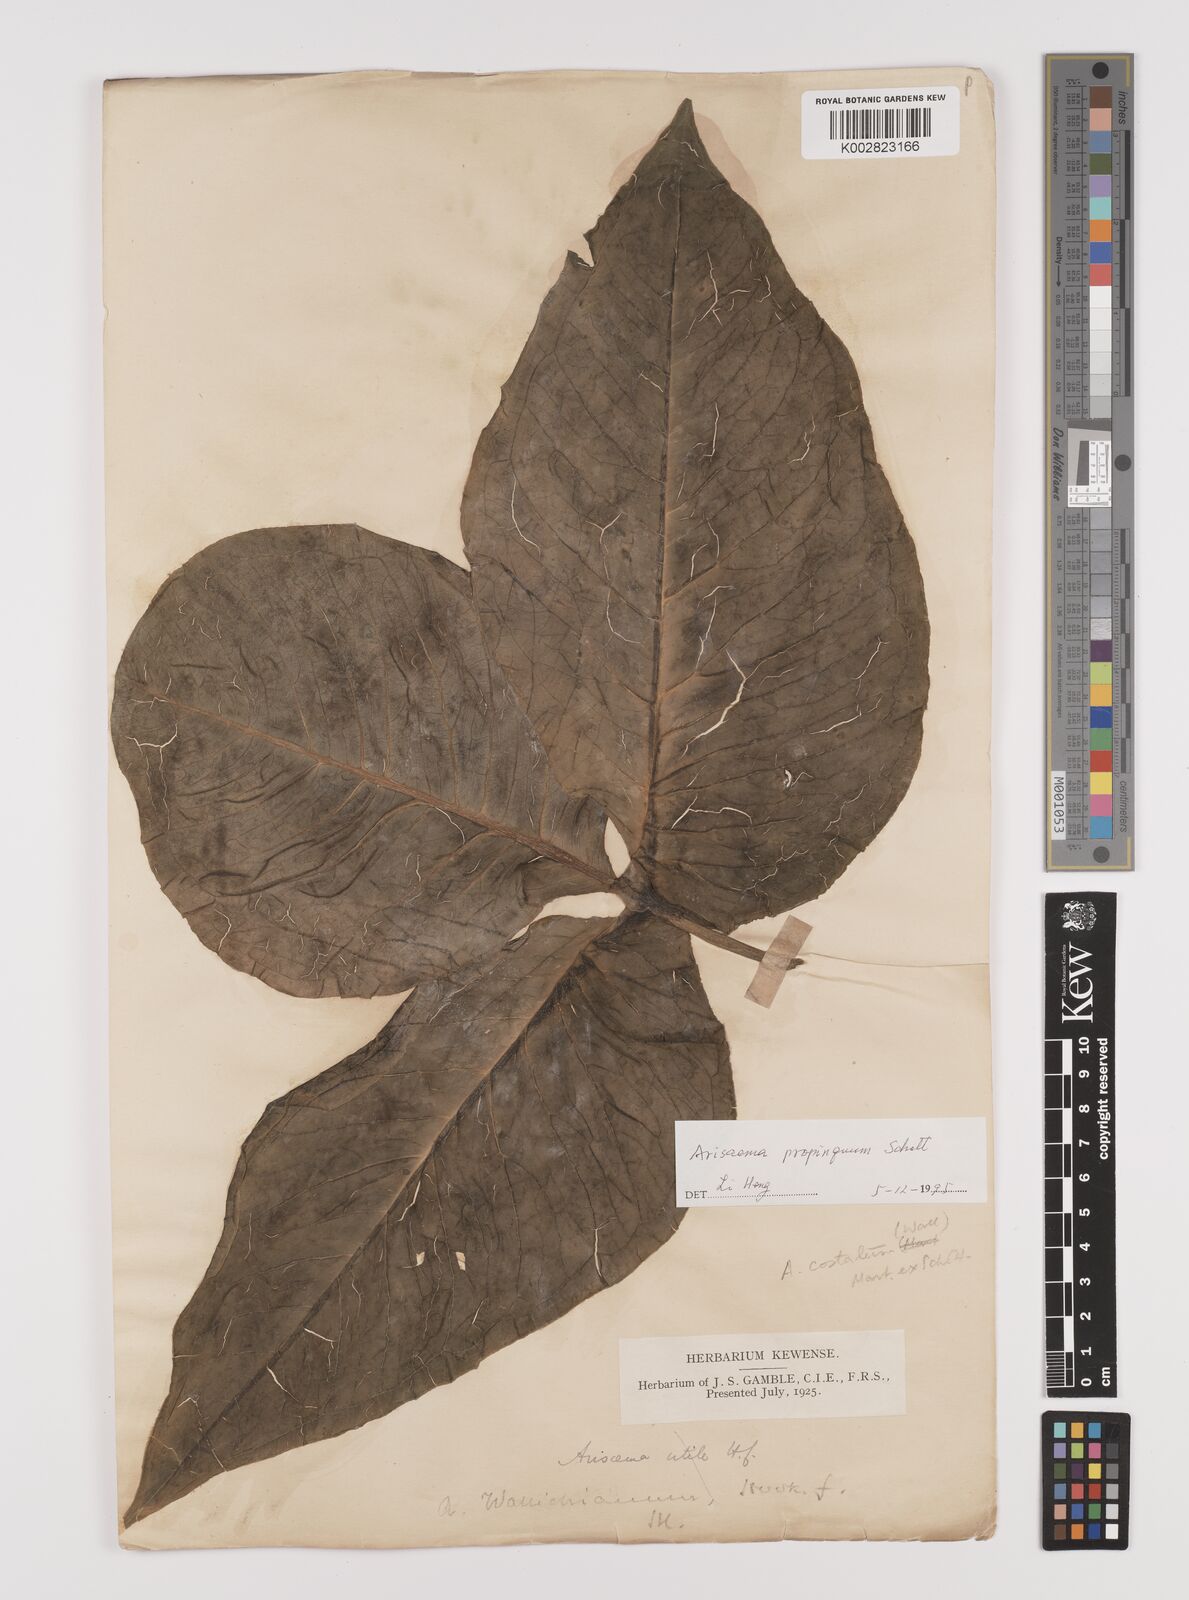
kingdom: Plantae
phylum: Tracheophyta
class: Liliopsida
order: Alismatales
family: Araceae
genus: Arisaema
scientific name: Arisaema propinquum
